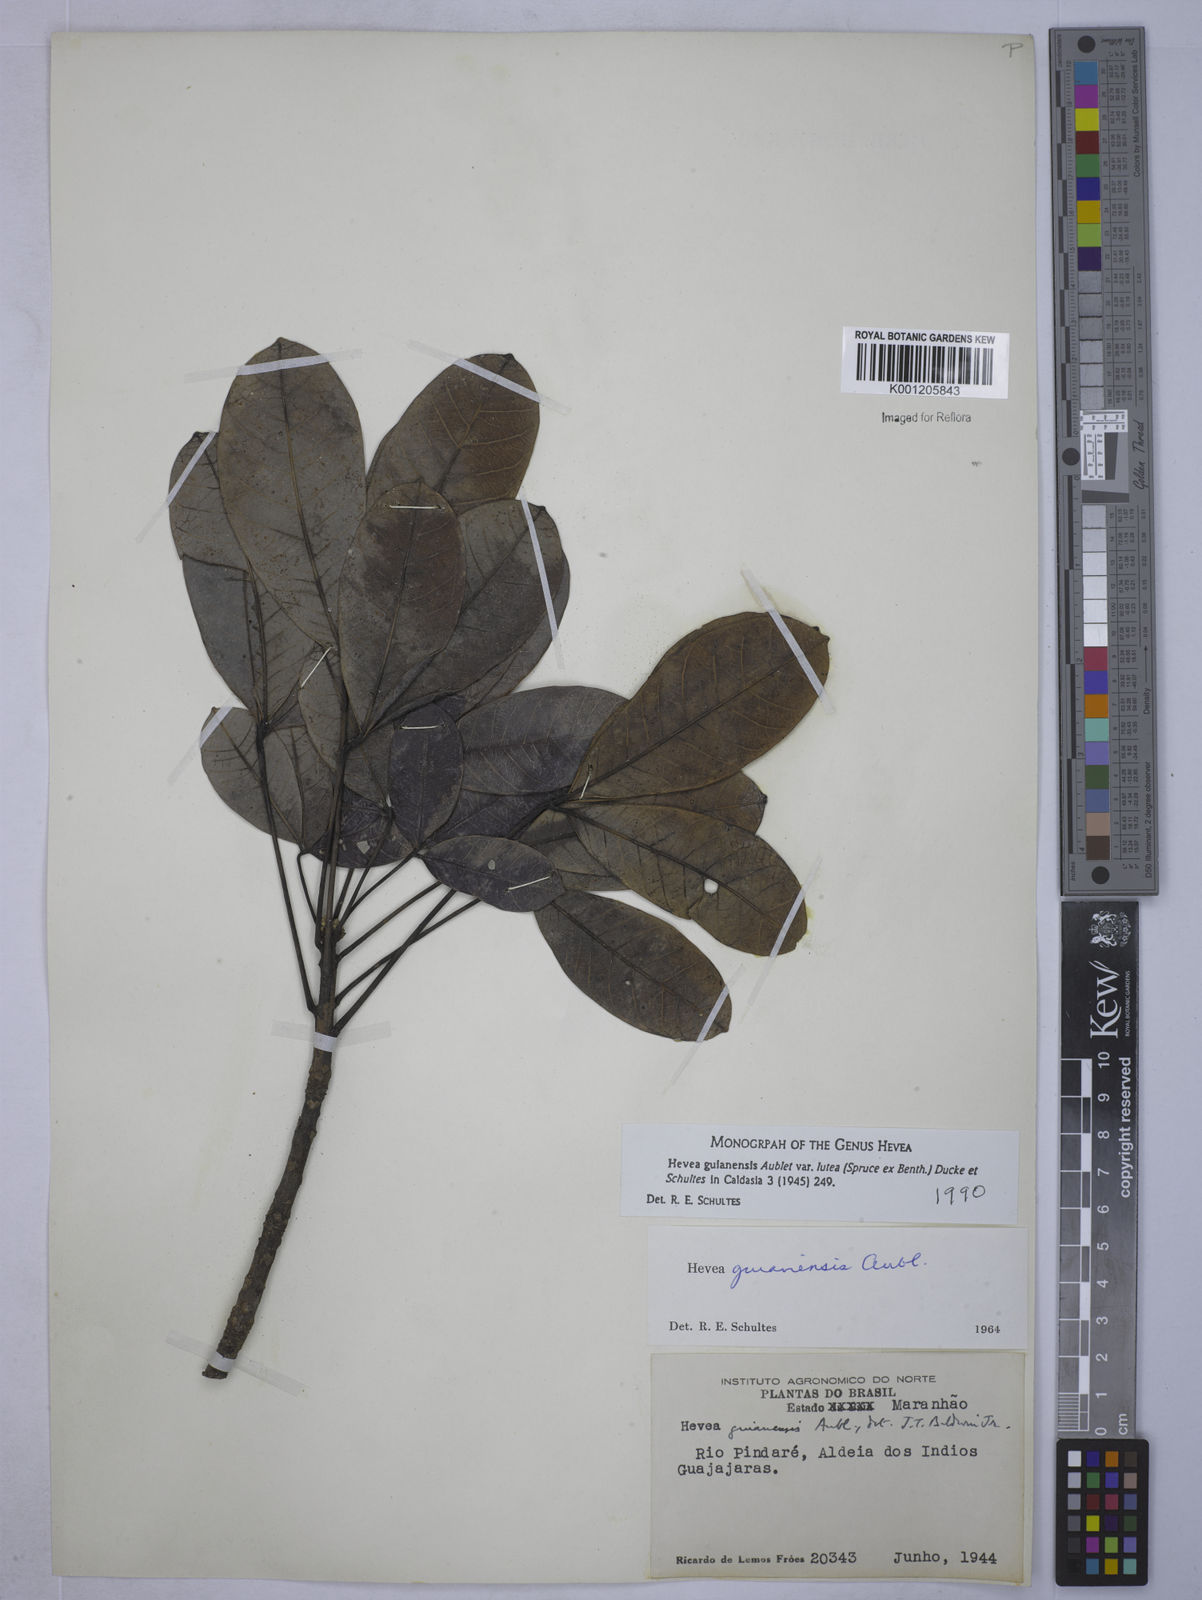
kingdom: Plantae
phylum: Tracheophyta
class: Magnoliopsida
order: Malpighiales
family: Euphorbiaceae
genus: Hevea
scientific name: Hevea guianensis
